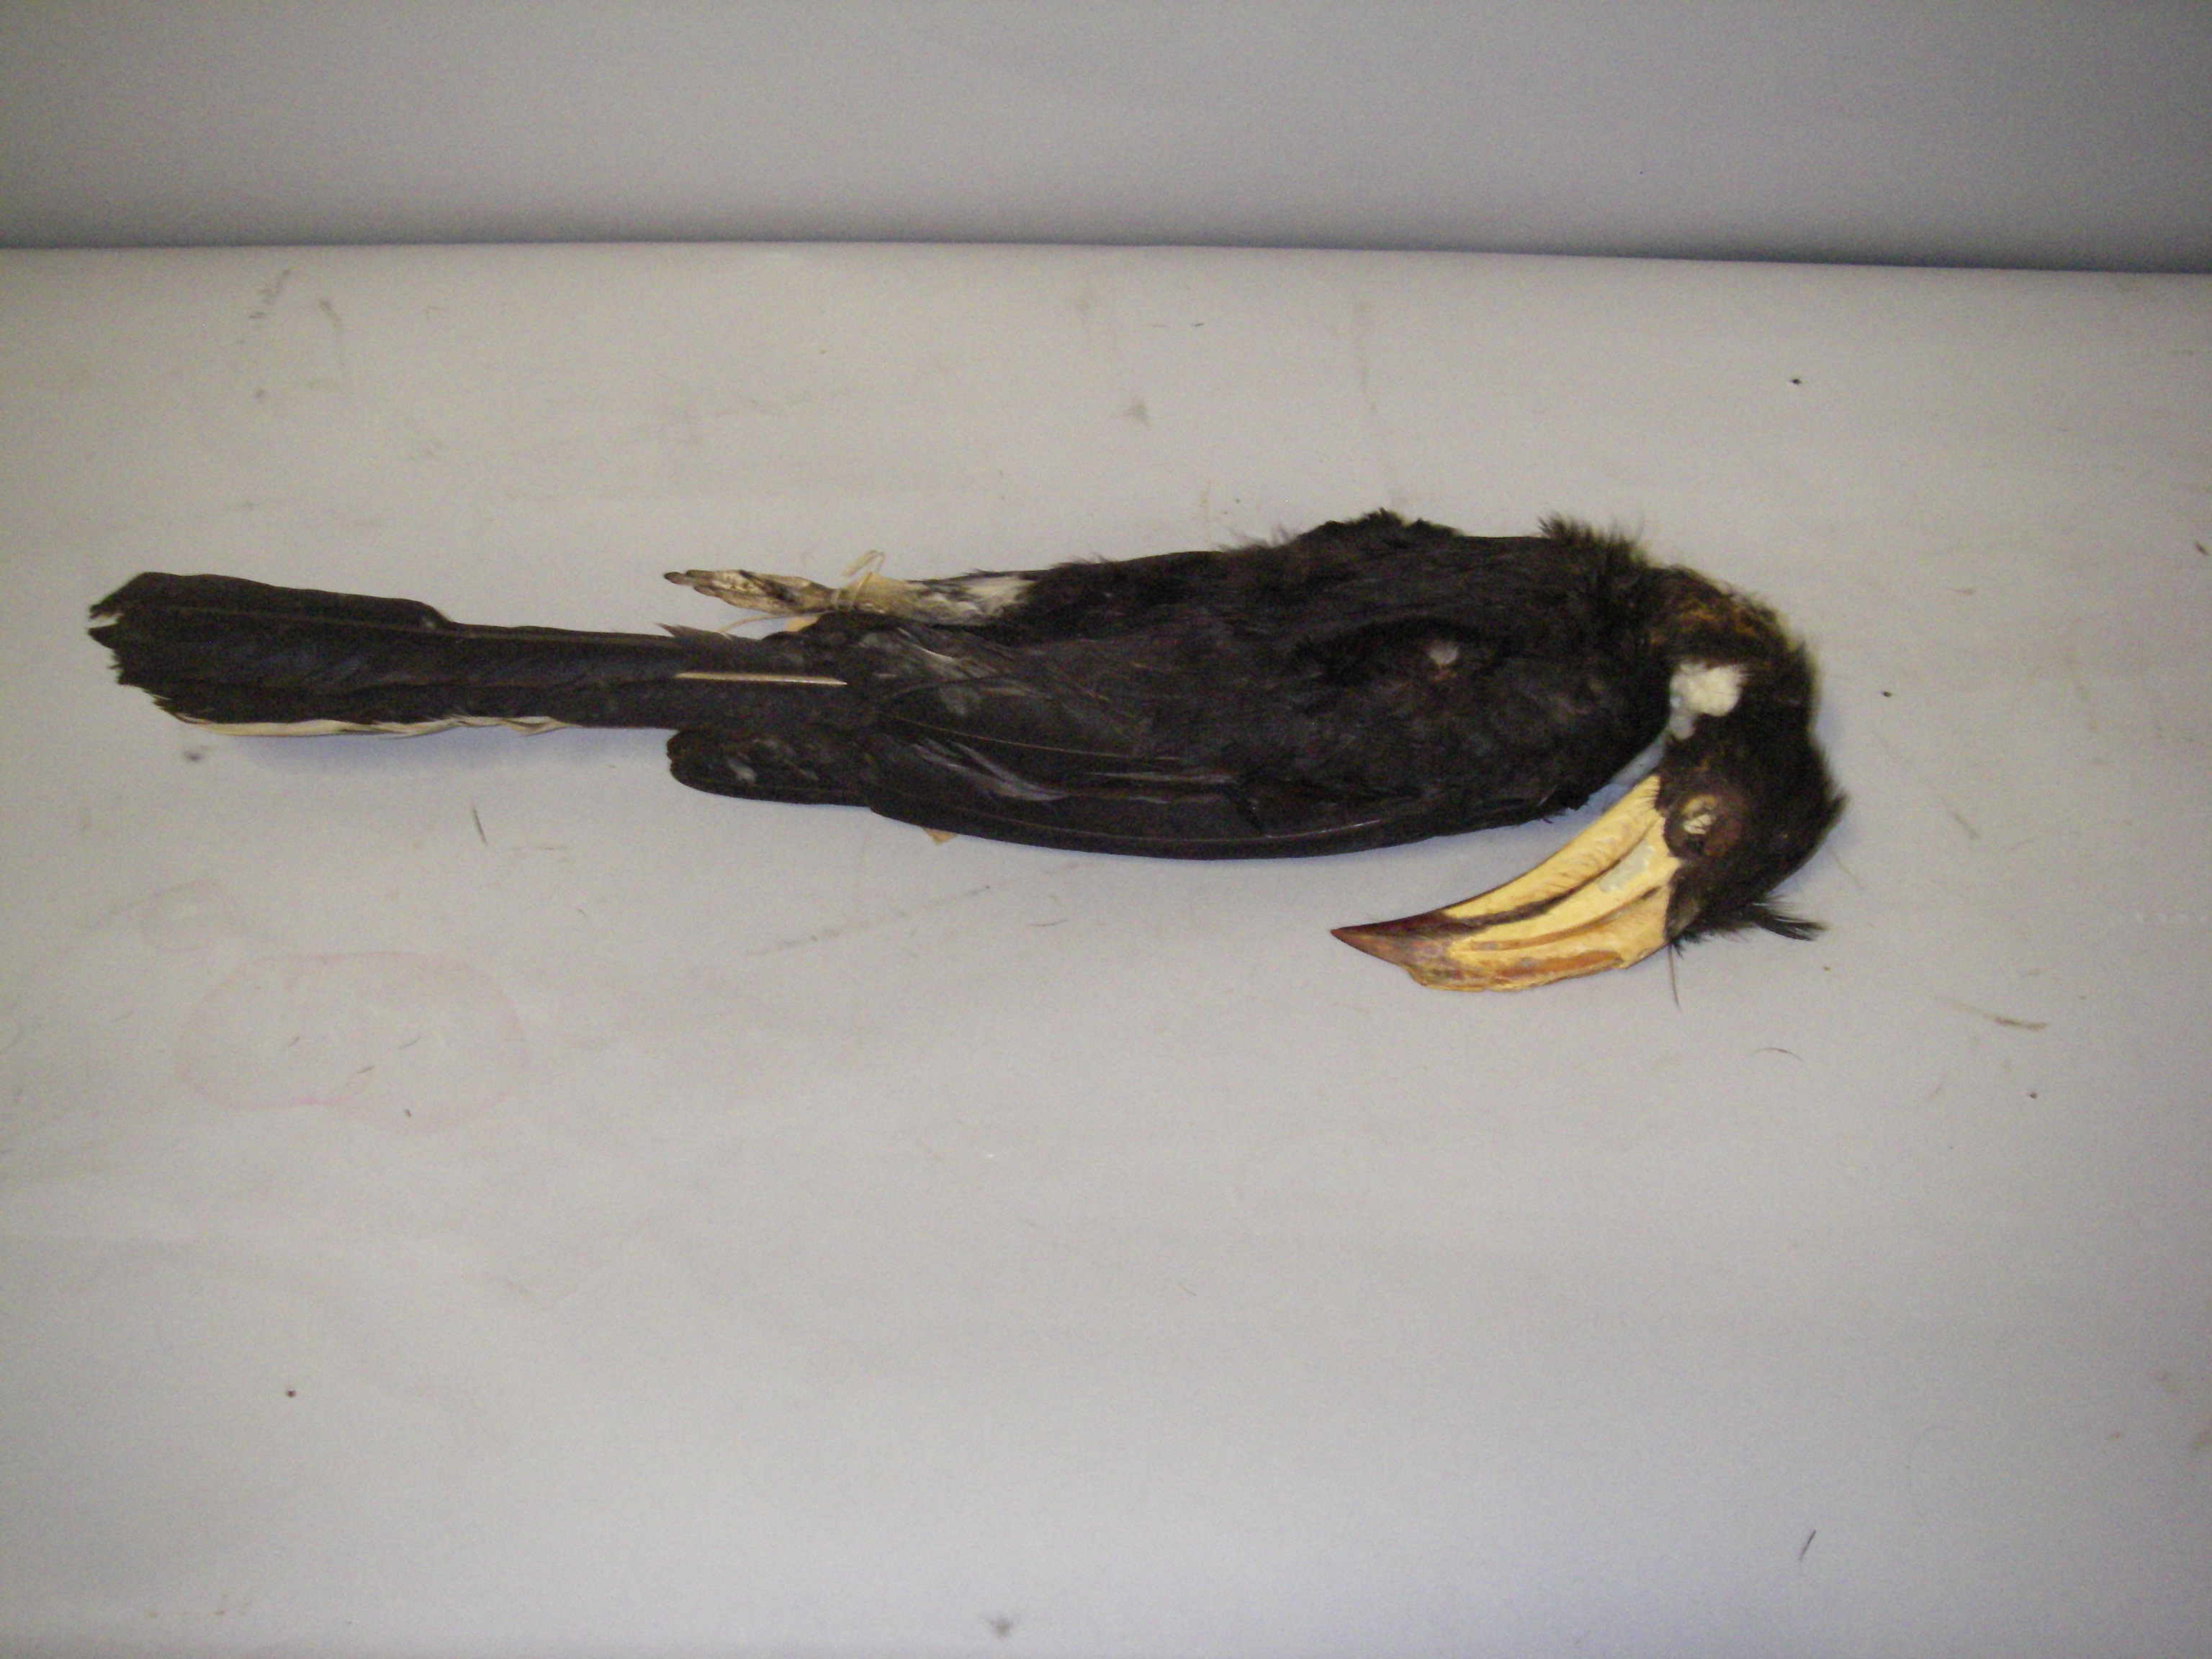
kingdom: Animalia
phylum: Chordata
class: Aves
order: Bucerotiformes
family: Bucerotidae
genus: Lophoceros
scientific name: Lophoceros fasciatus
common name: African pied hornbill
